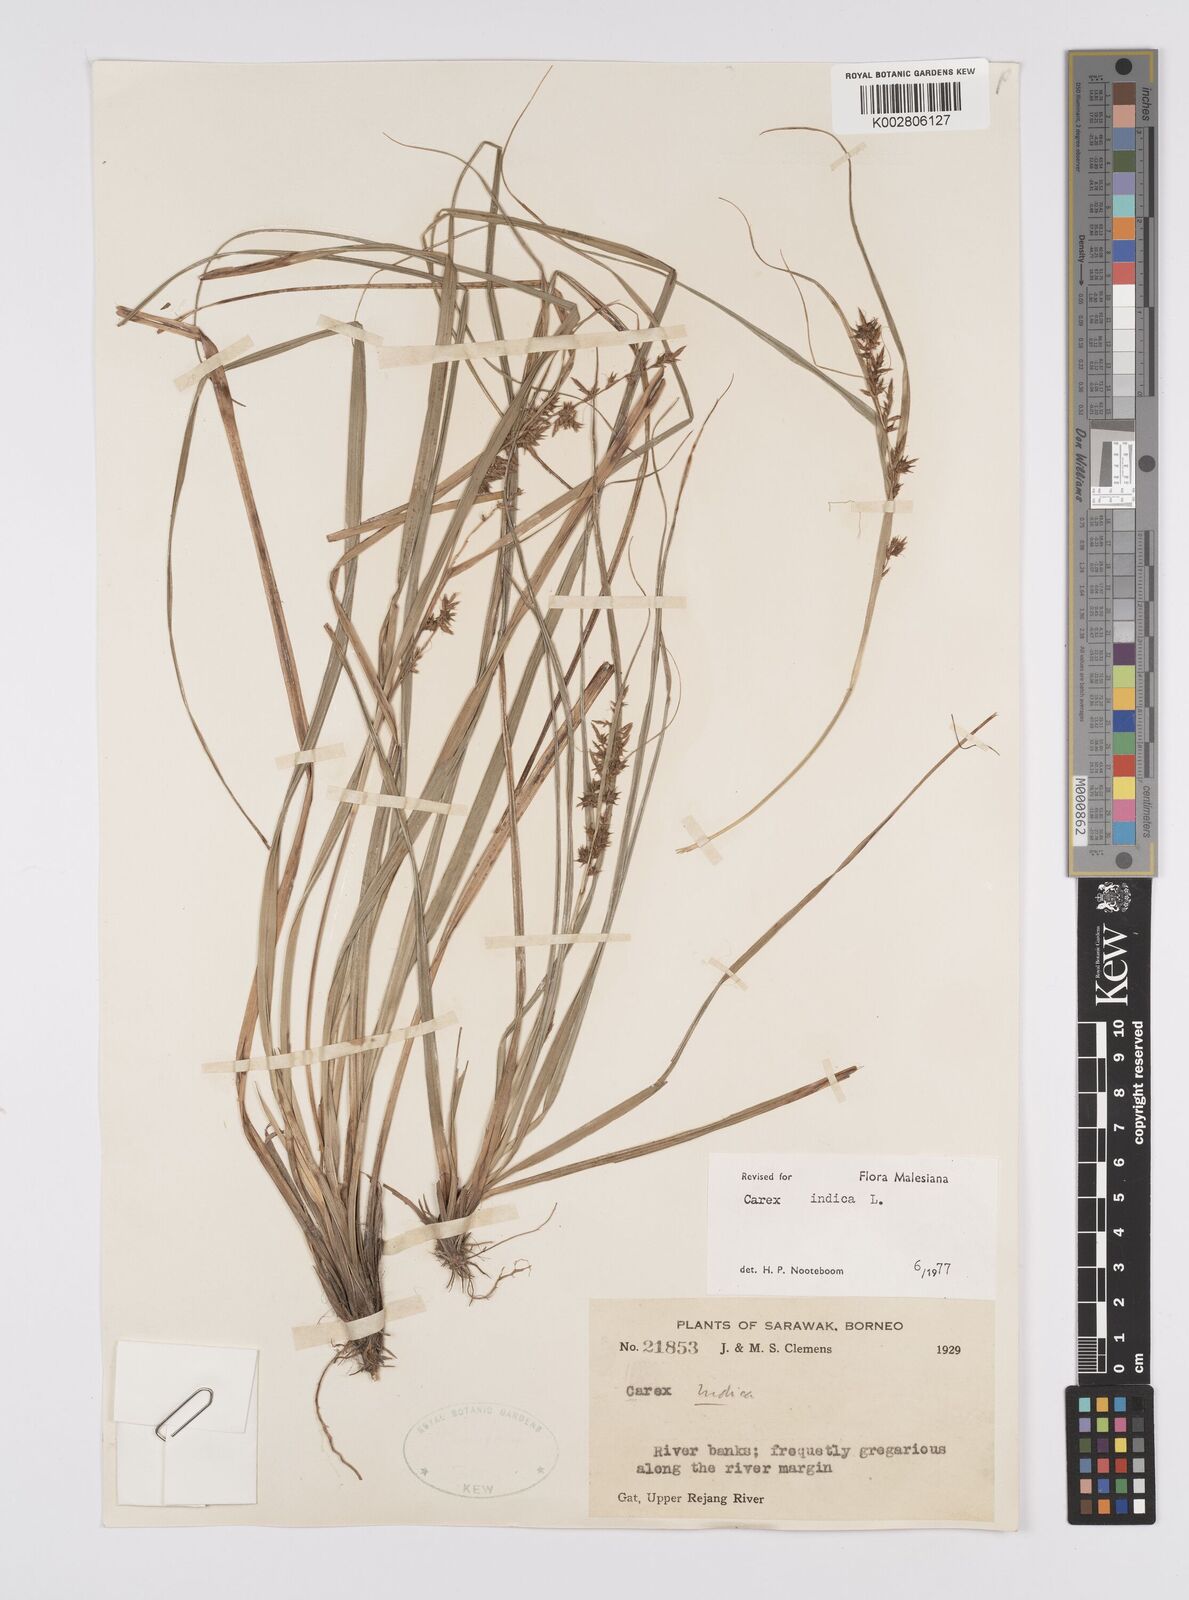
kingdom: Plantae
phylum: Tracheophyta
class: Liliopsida
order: Poales
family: Cyperaceae
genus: Carex
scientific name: Carex indica
